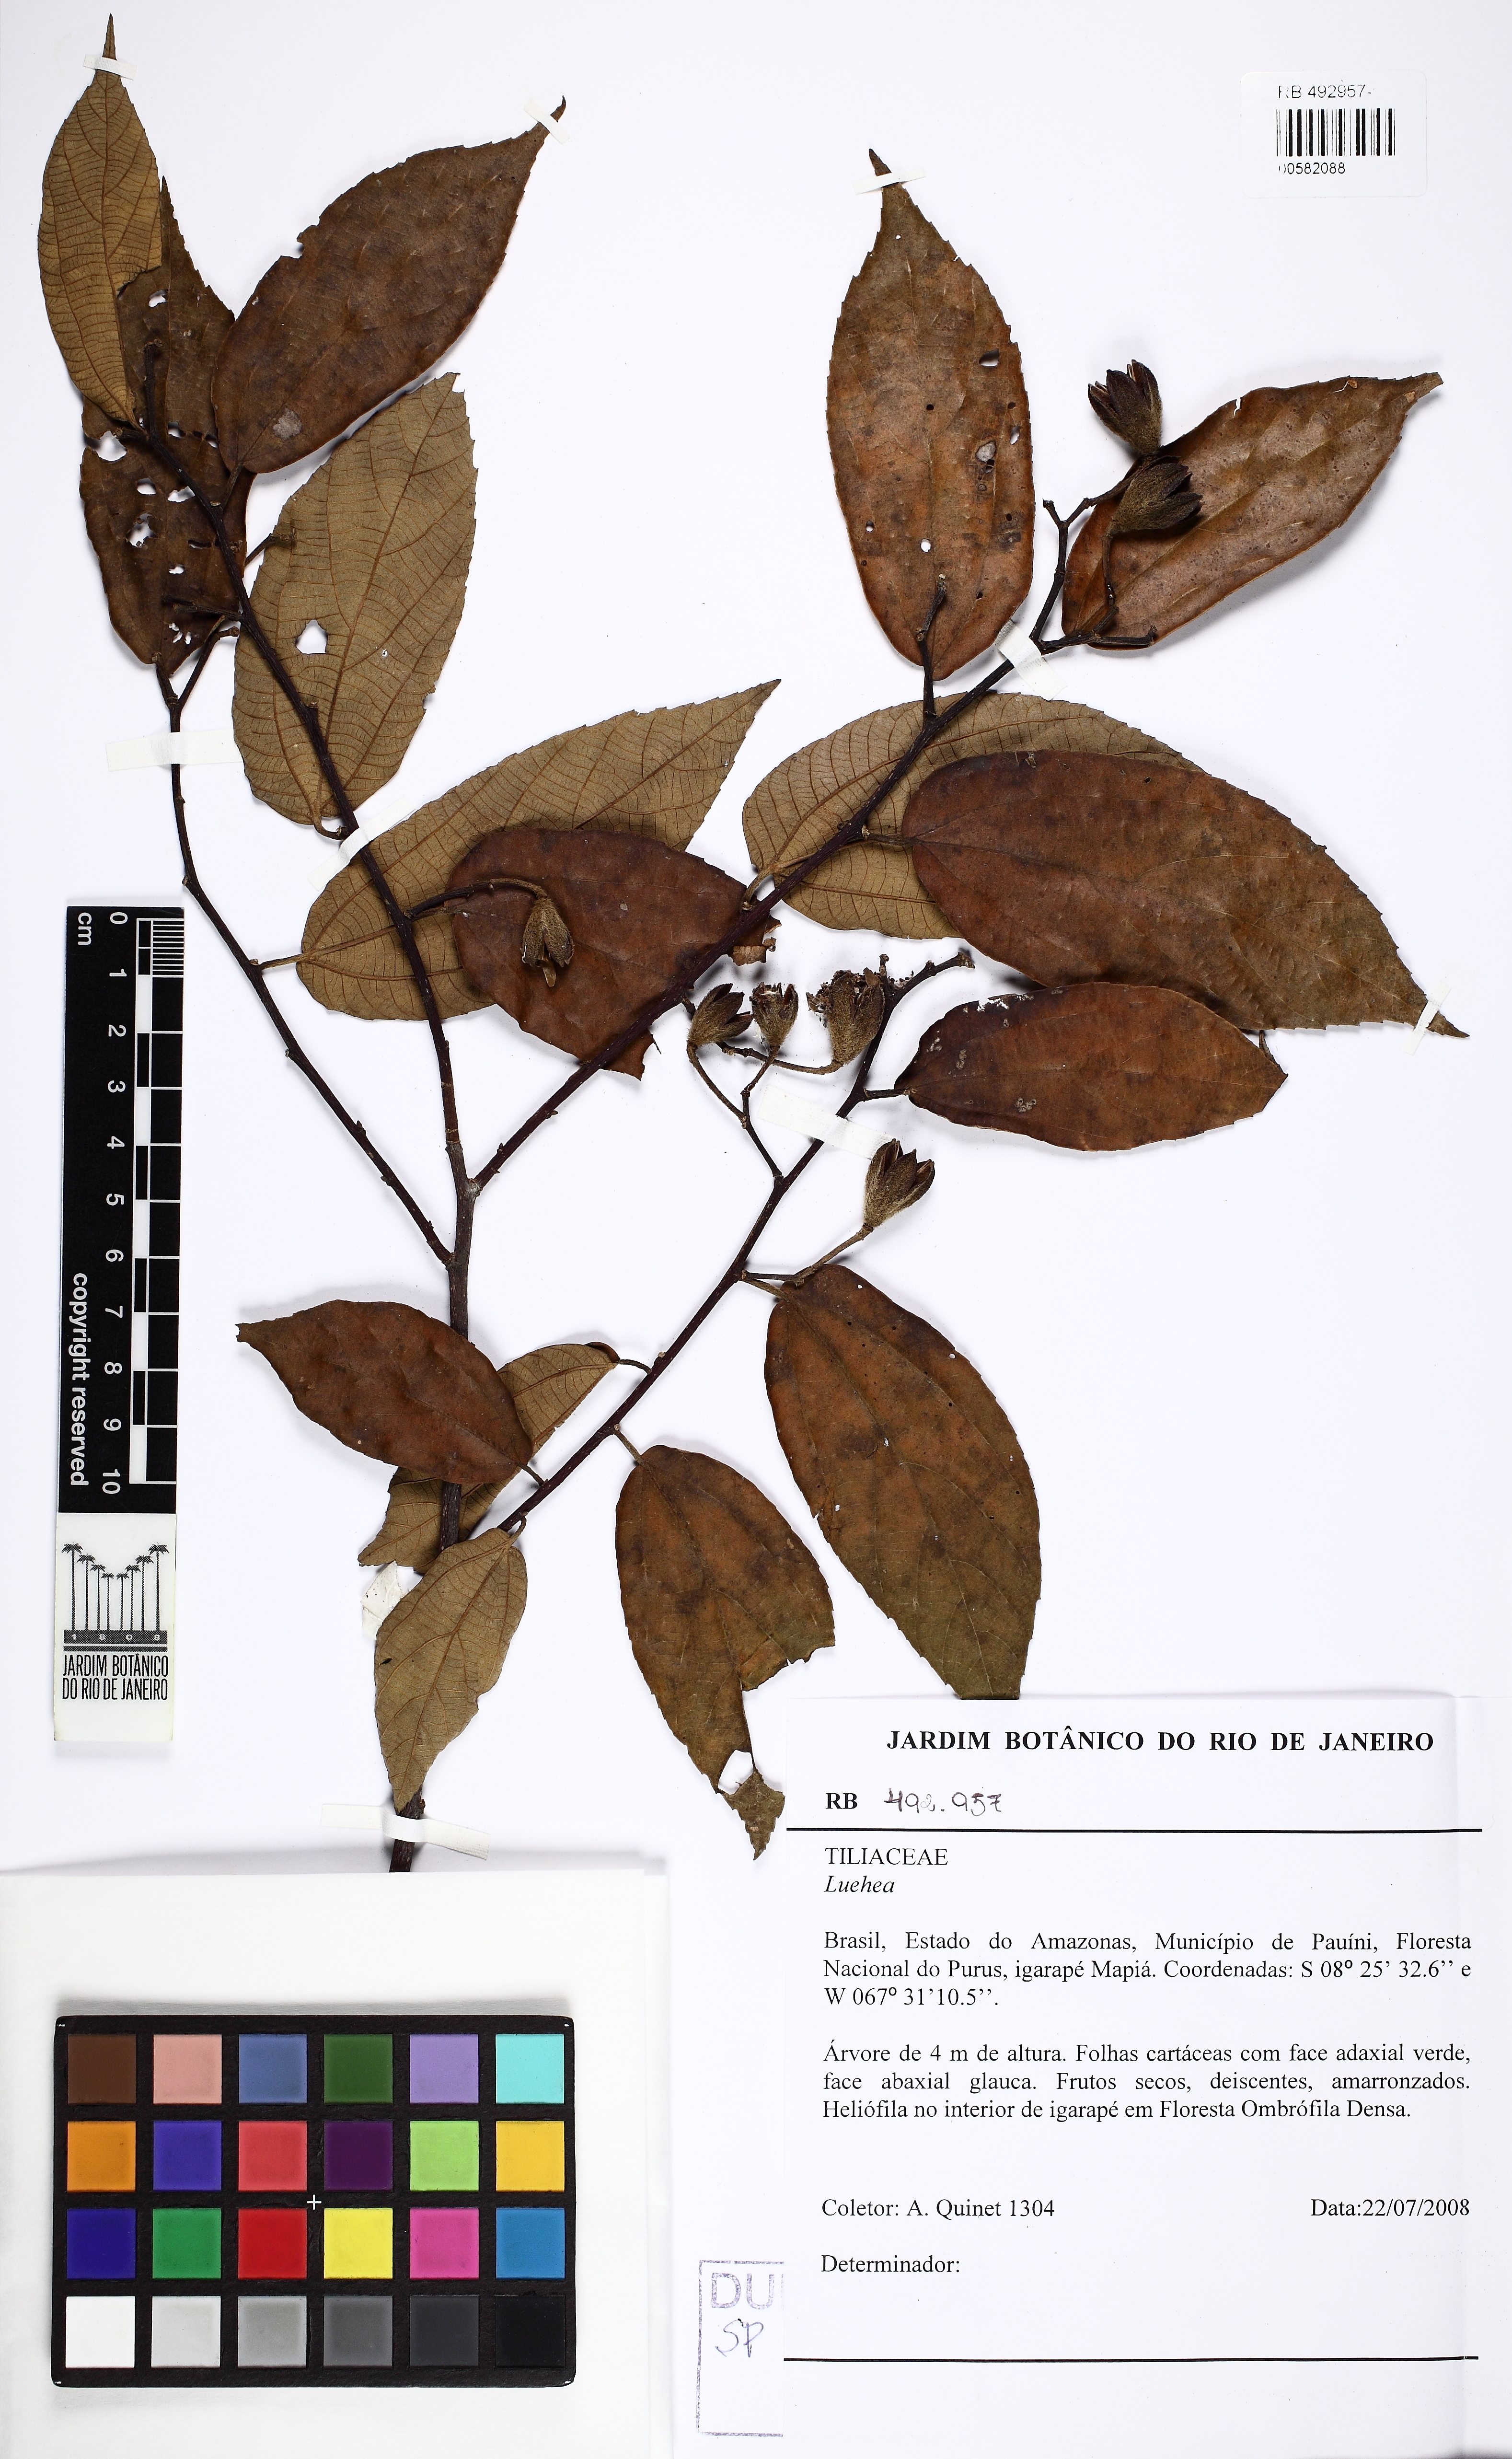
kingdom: Plantae
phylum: Tracheophyta
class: Magnoliopsida
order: Malvales
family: Malvaceae
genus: Luehea
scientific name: Luehea cymulosa
